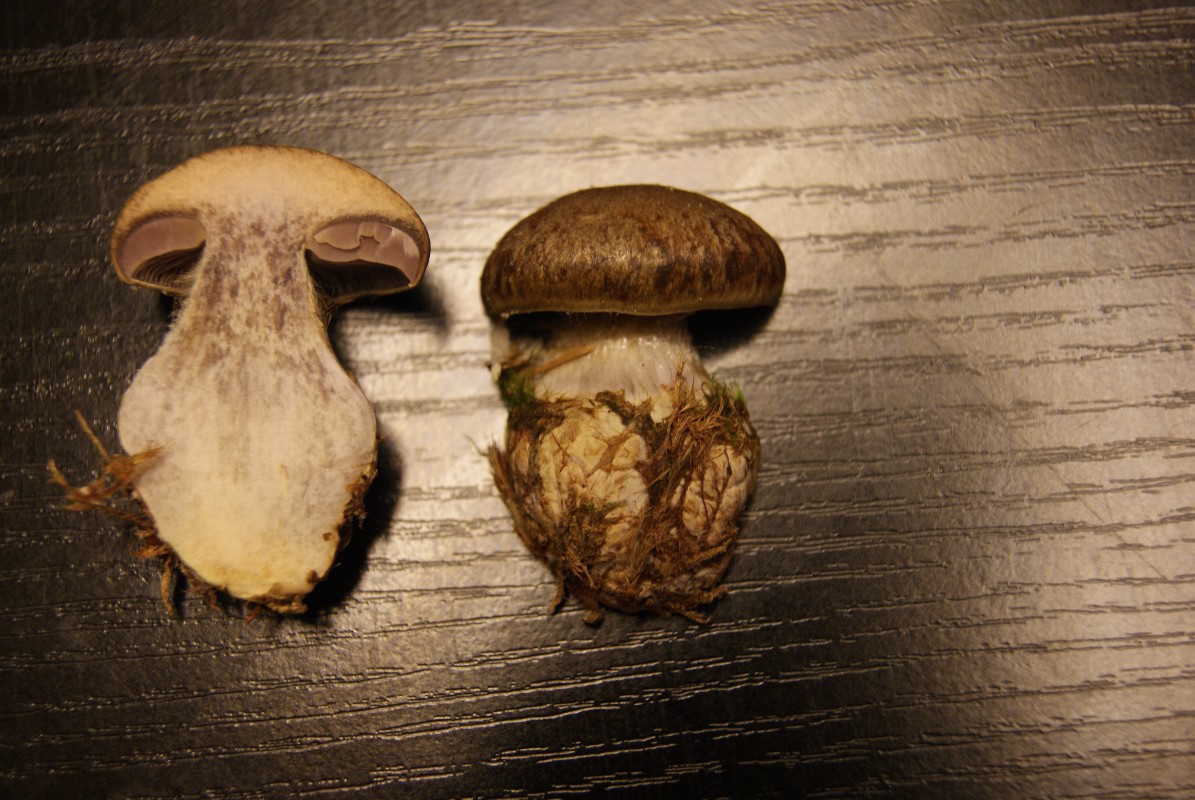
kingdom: Fungi
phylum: Basidiomycota
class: Agaricomycetes
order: Agaricales
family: Cortinariaceae
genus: Thaxterogaster
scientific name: Thaxterogaster herpeticus
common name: grønrandet slørhat
